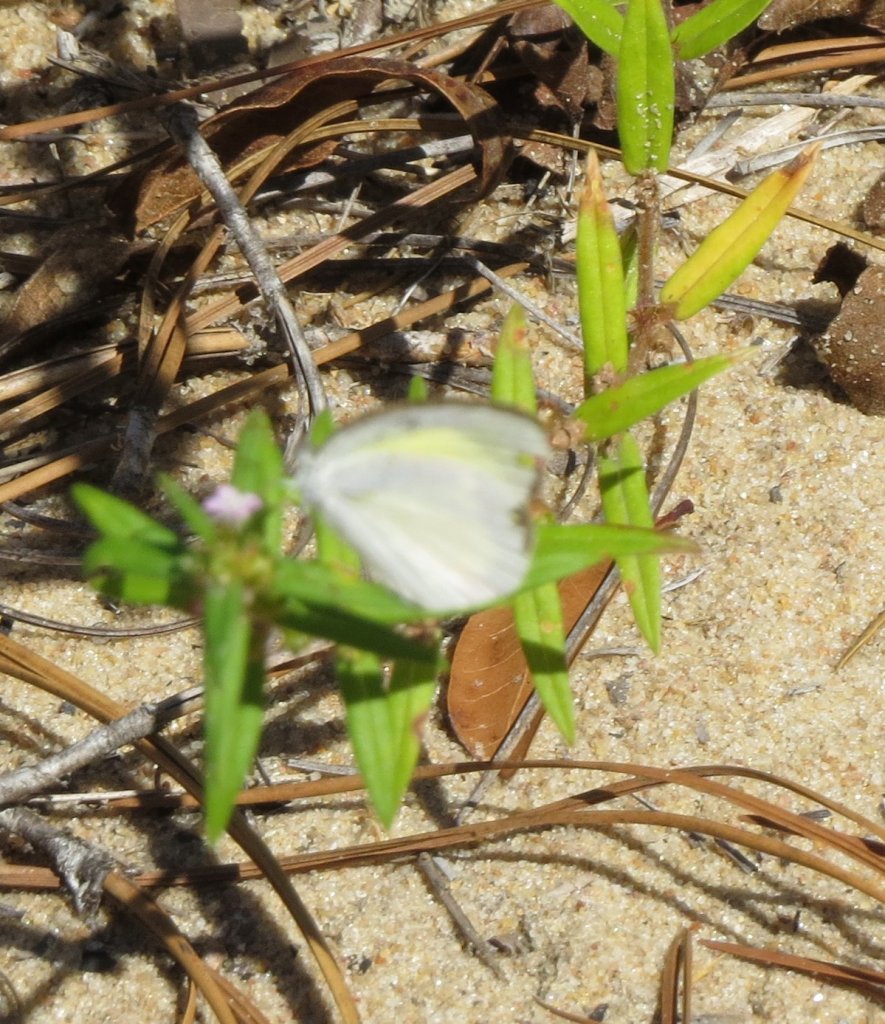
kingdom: Animalia
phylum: Arthropoda
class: Insecta
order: Lepidoptera
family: Pieridae
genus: Eurema
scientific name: Eurema daira
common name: Barred Yellow
